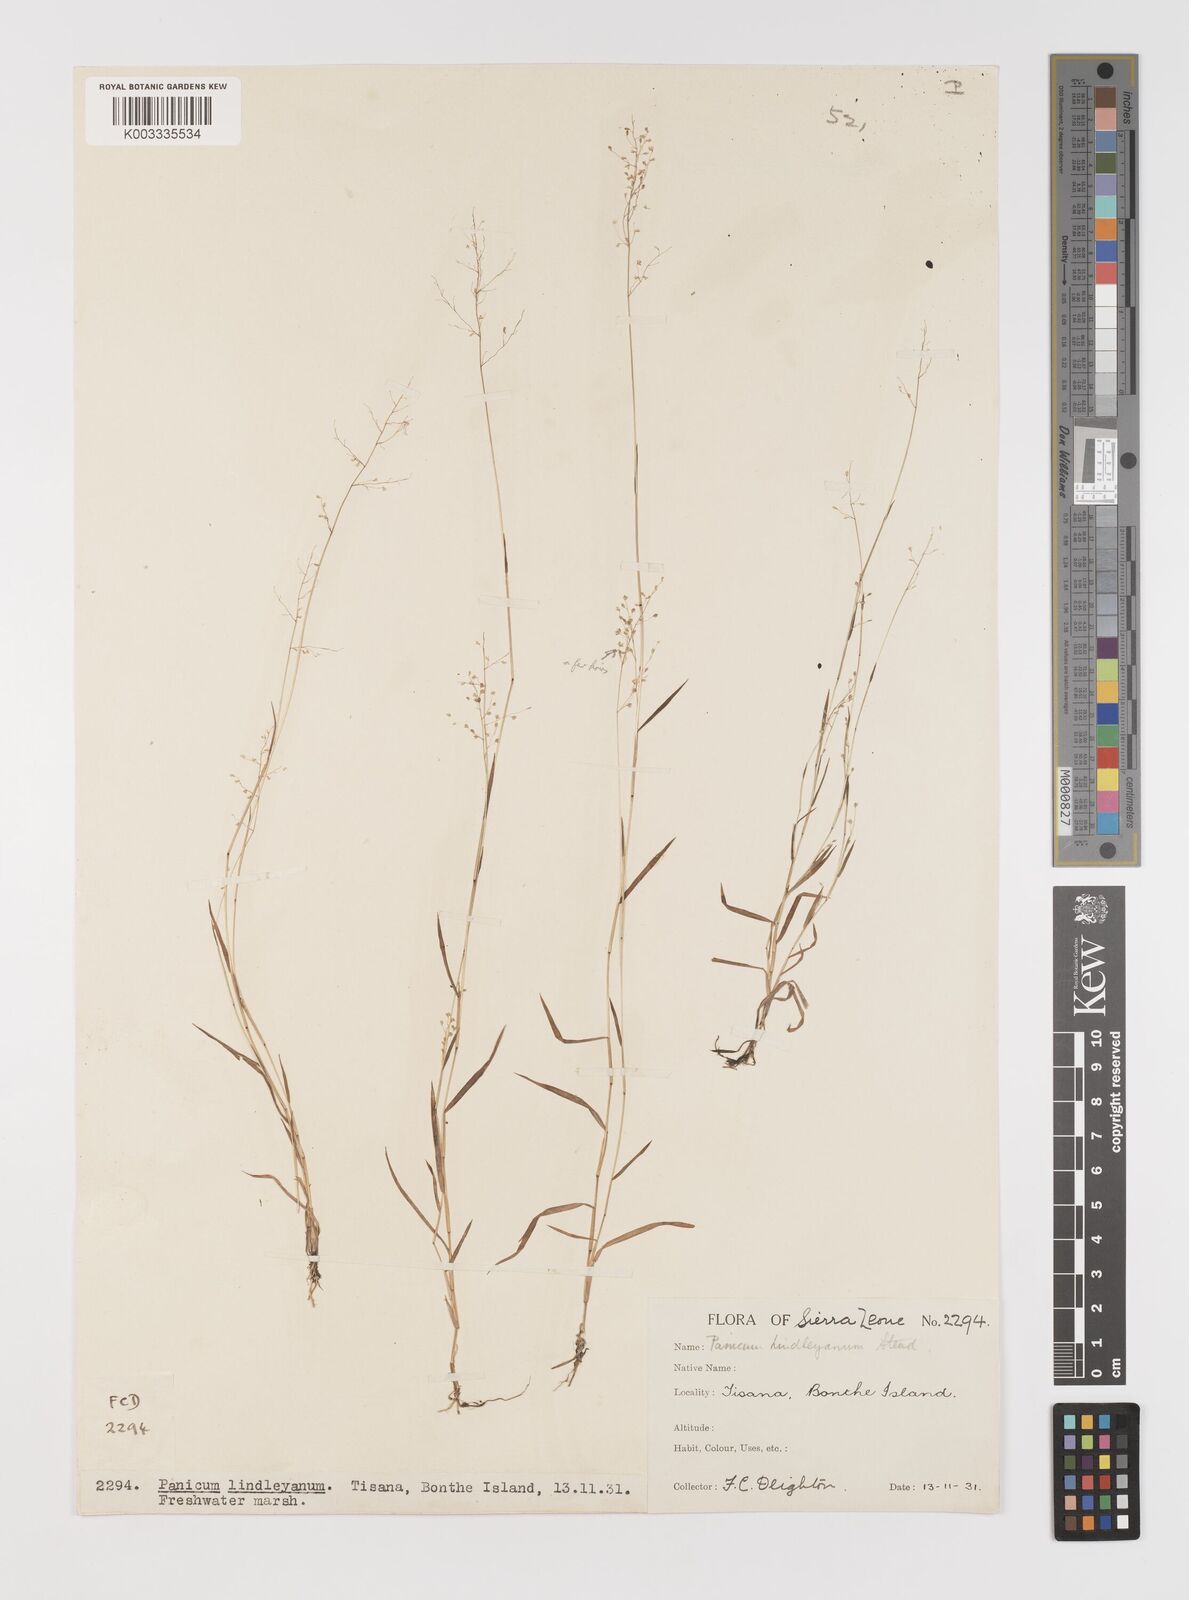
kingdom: Plantae
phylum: Tracheophyta
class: Liliopsida
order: Poales
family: Poaceae
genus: Trichanthecium
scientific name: Trichanthecium tenellum
